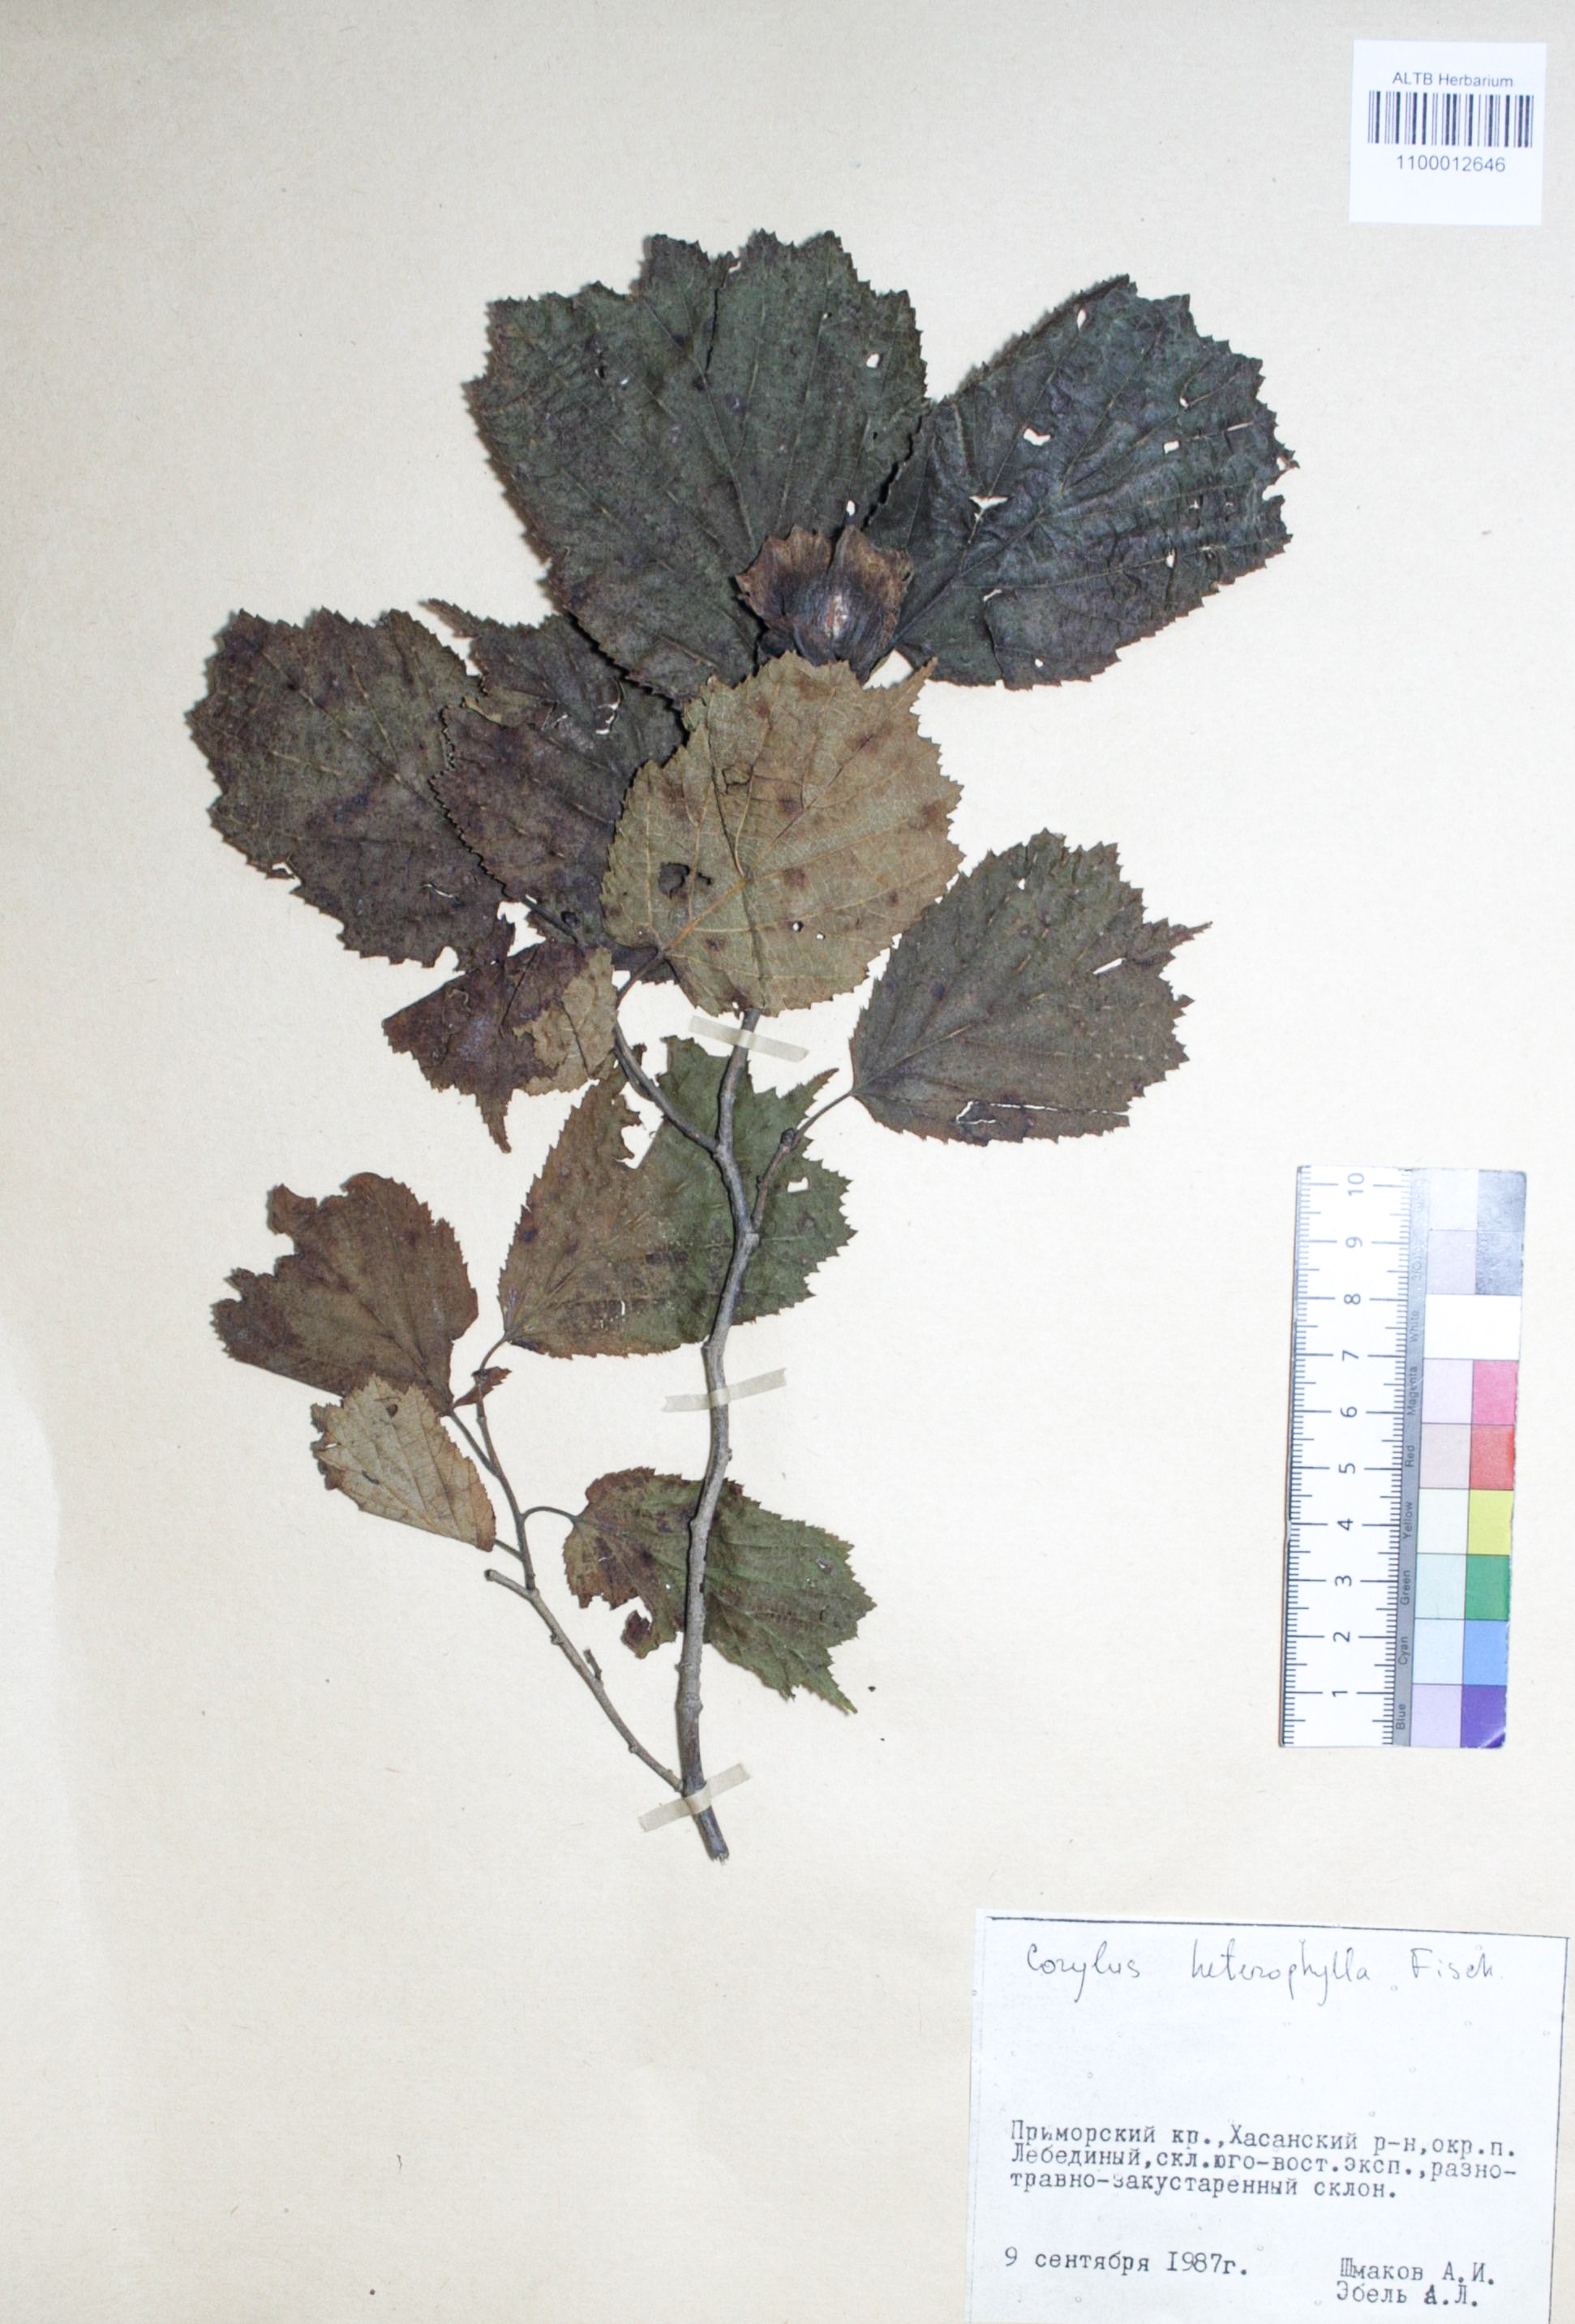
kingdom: Plantae
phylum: Tracheophyta
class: Magnoliopsida
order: Fagales
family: Betulaceae
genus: Corylus
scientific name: Corylus heterophylla
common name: Siberian hazelnut
